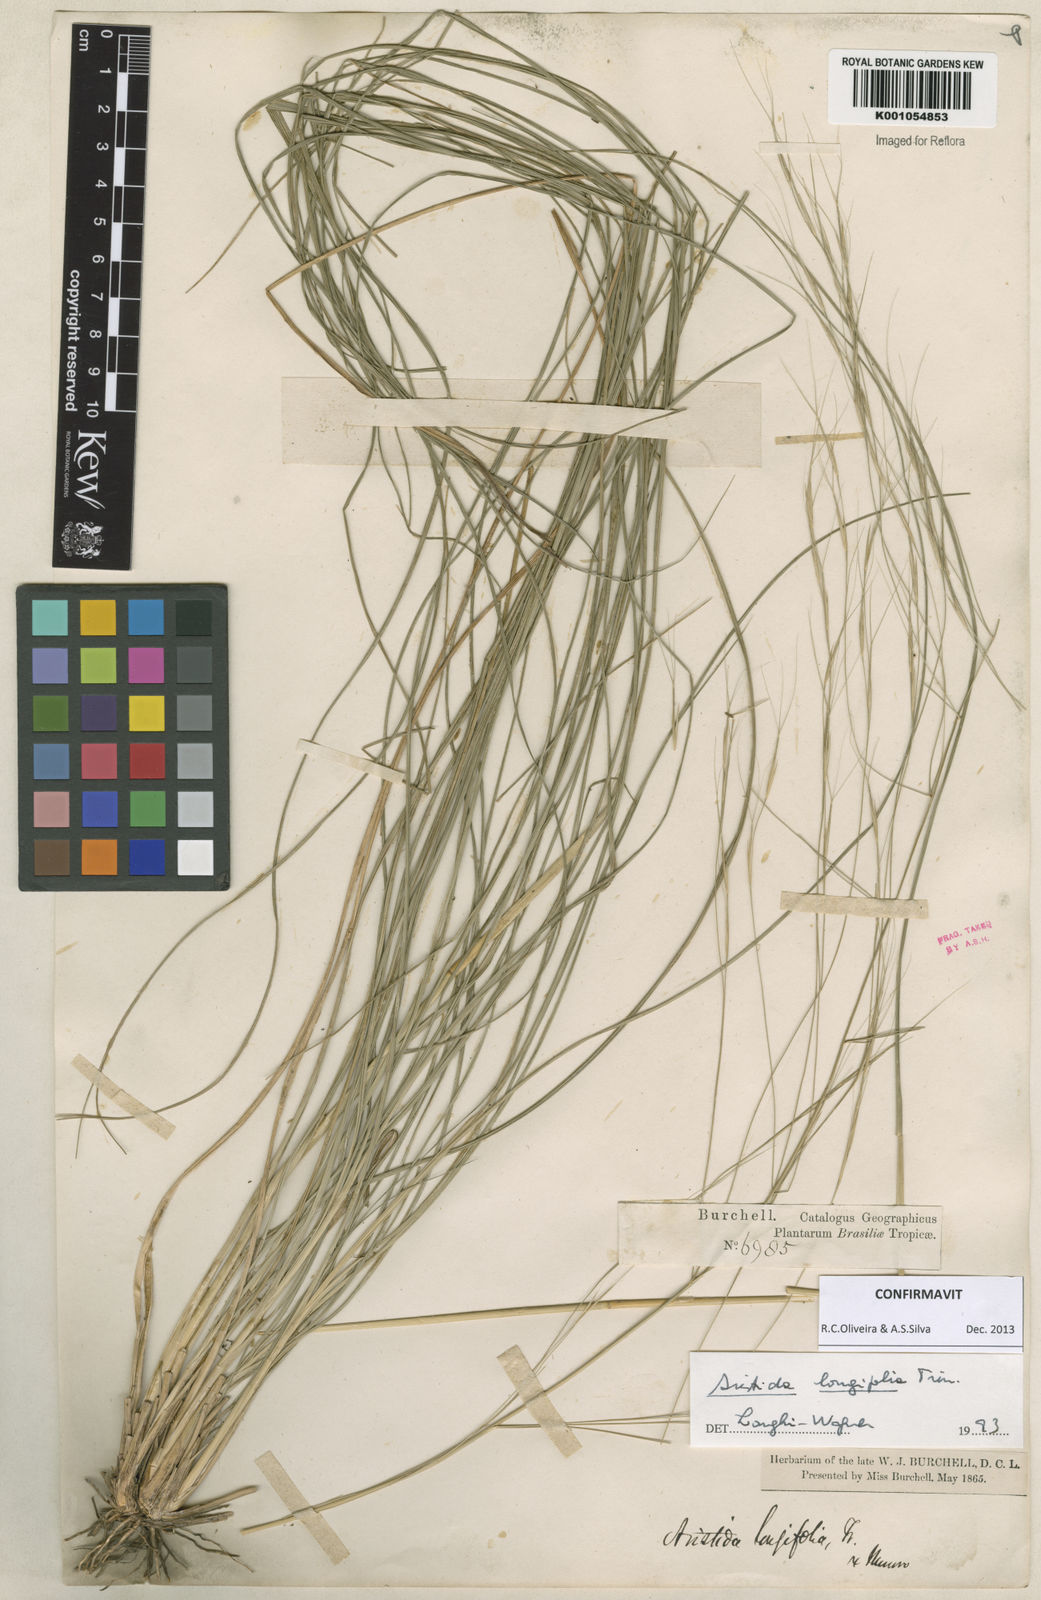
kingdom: Plantae
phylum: Tracheophyta
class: Liliopsida
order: Poales
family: Poaceae
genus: Aristida
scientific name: Aristida longifolia
